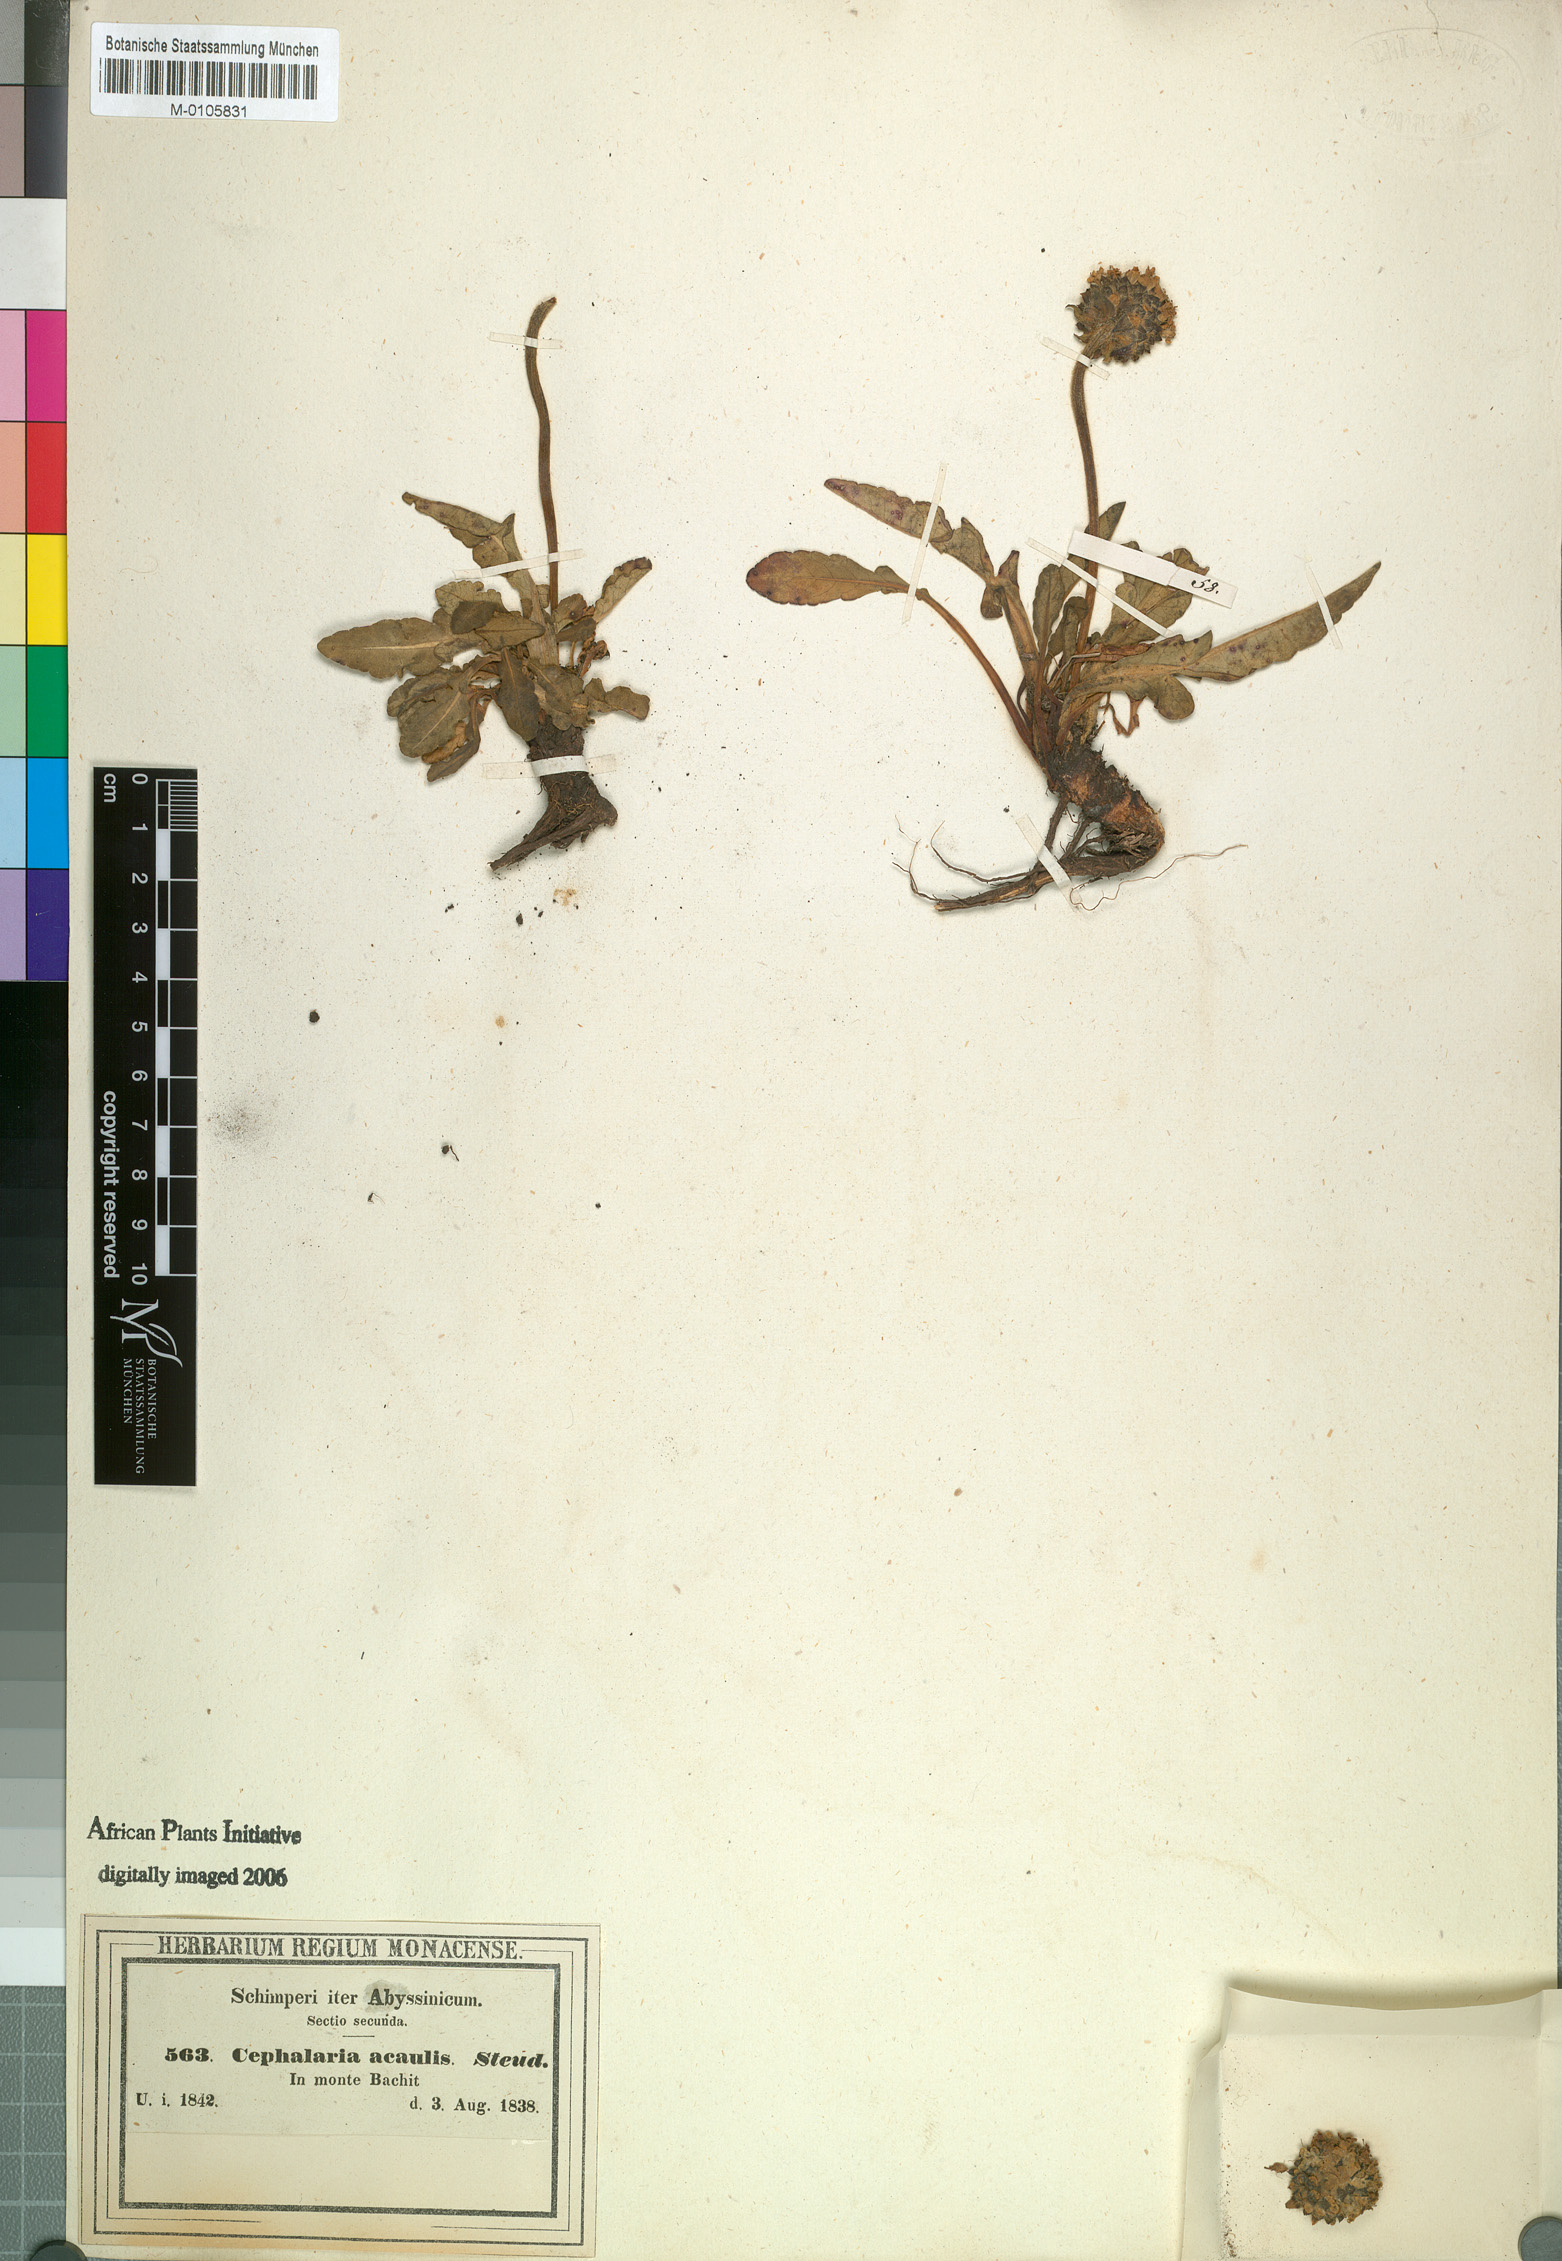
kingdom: Plantae
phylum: Tracheophyta
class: Magnoliopsida
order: Dipsacales
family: Caprifoliaceae
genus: Dipsacus
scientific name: Dipsacus pinnatifidus
